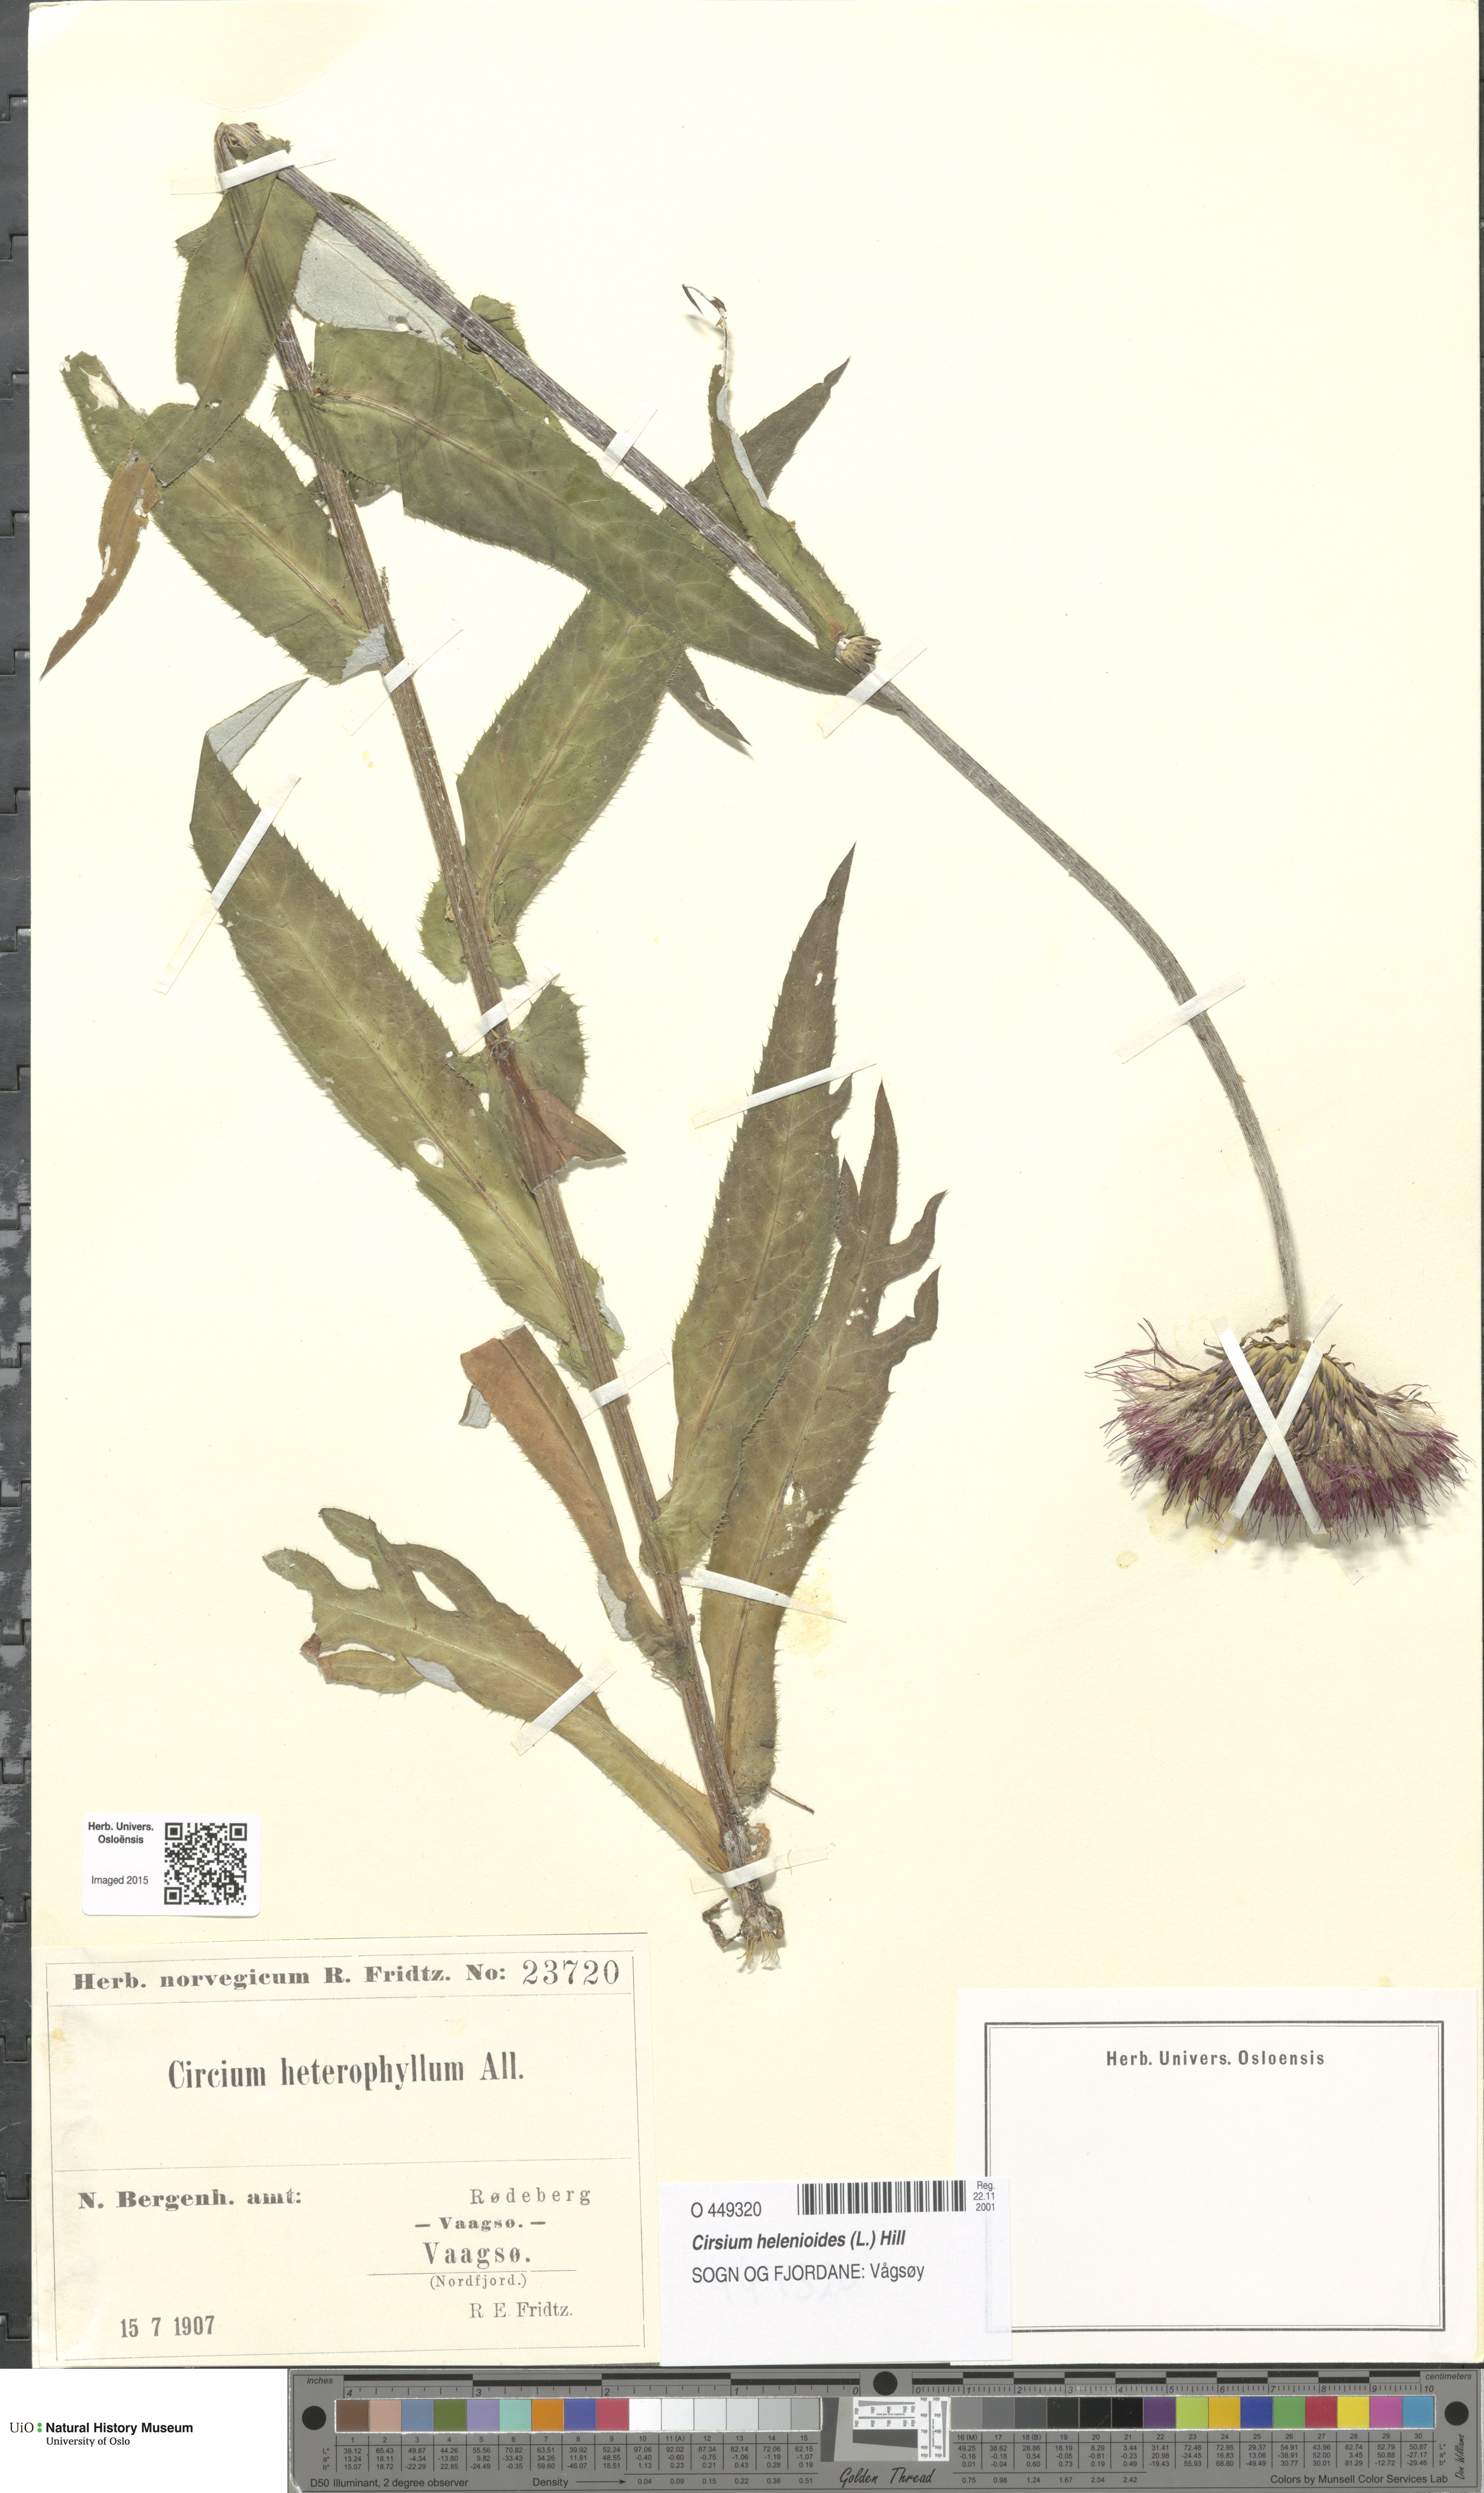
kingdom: Plantae
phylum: Tracheophyta
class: Magnoliopsida
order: Asterales
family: Asteraceae
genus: Cirsium
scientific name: Cirsium heterophyllum
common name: Melancholy thistle
